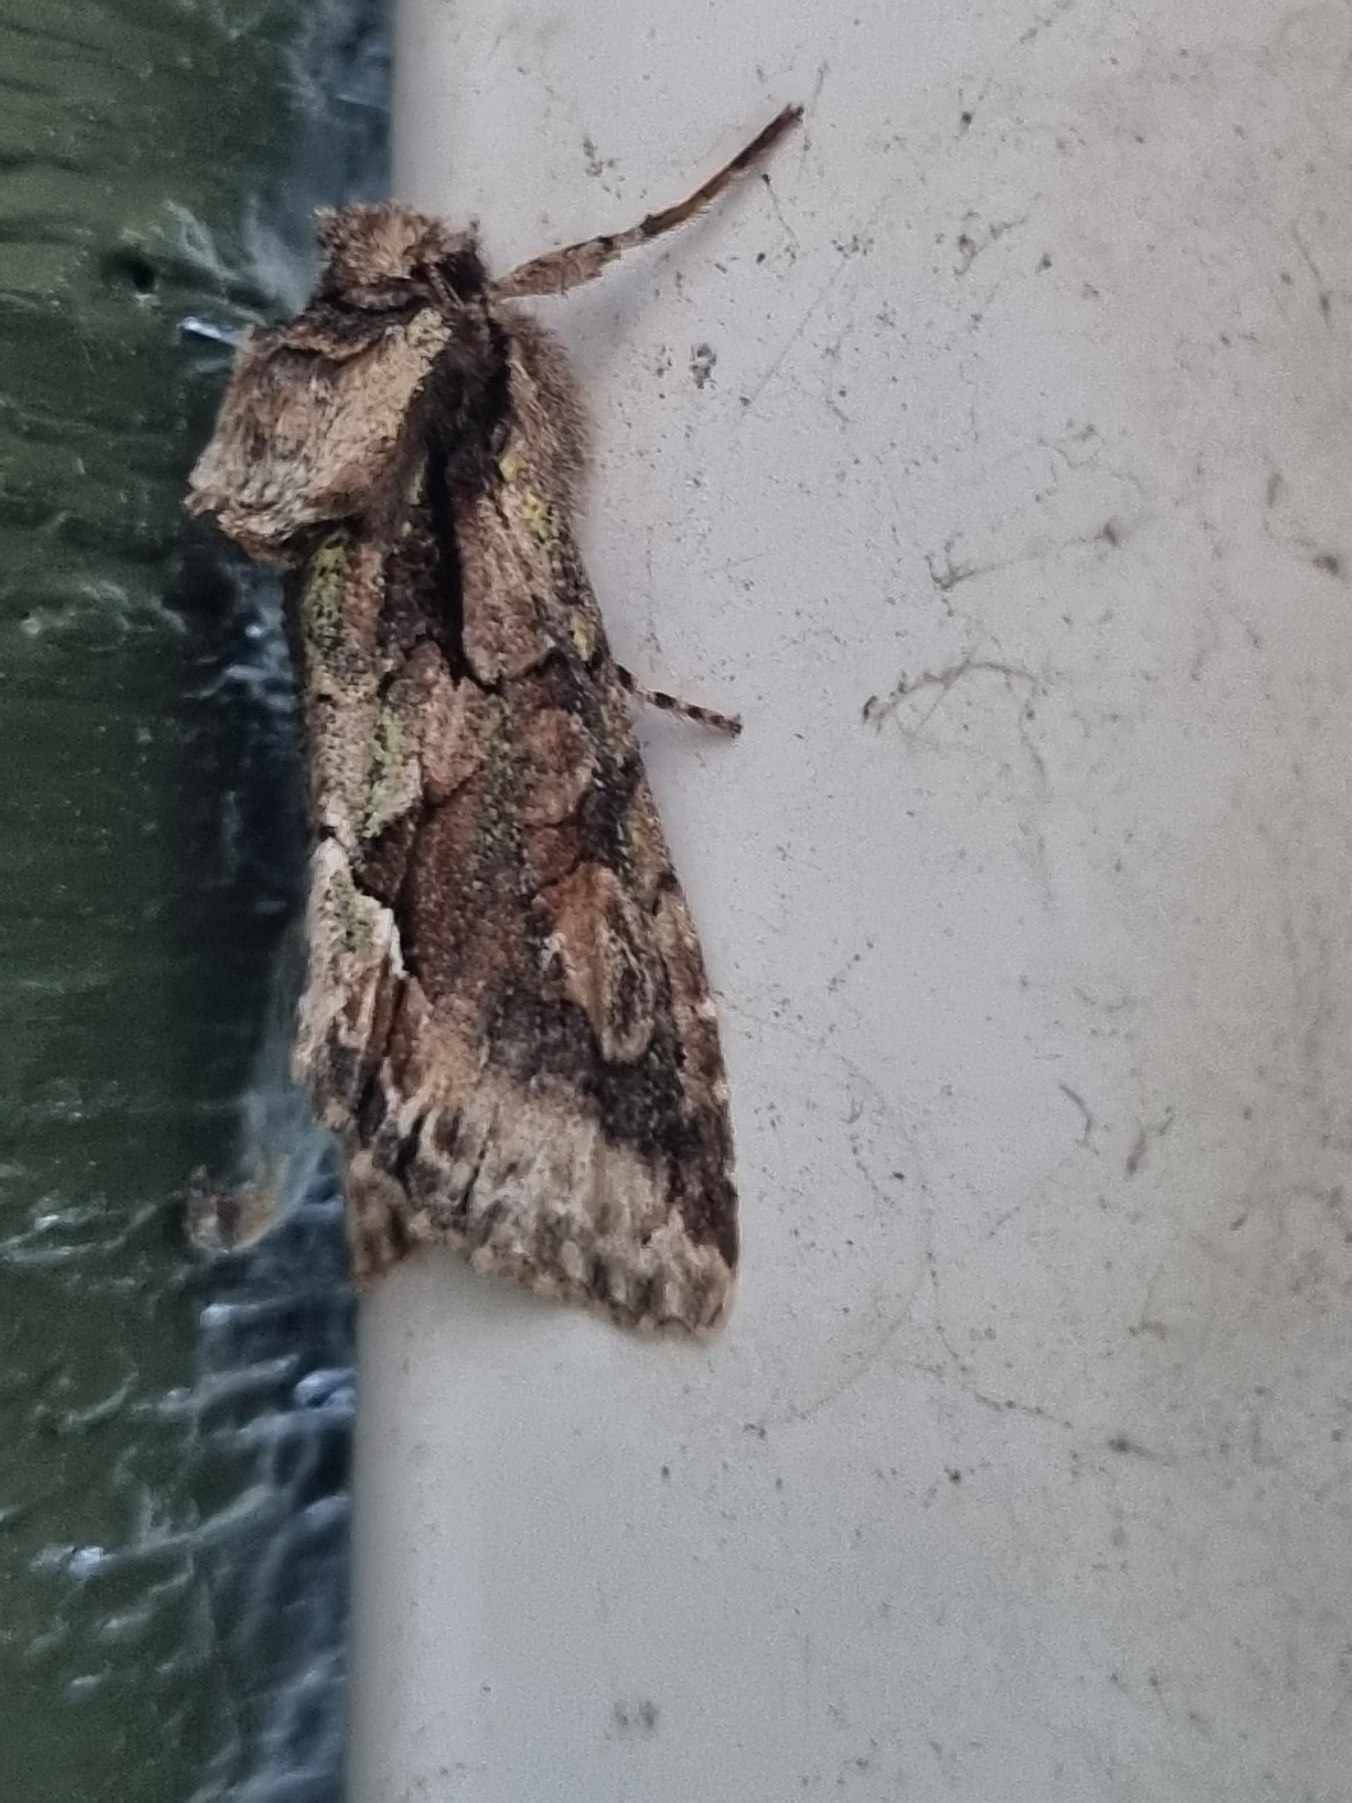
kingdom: Animalia
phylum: Arthropoda
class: Insecta
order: Lepidoptera
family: Noctuidae
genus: Allophyes
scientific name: Allophyes oxyacanthae
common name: Tjørneugle
